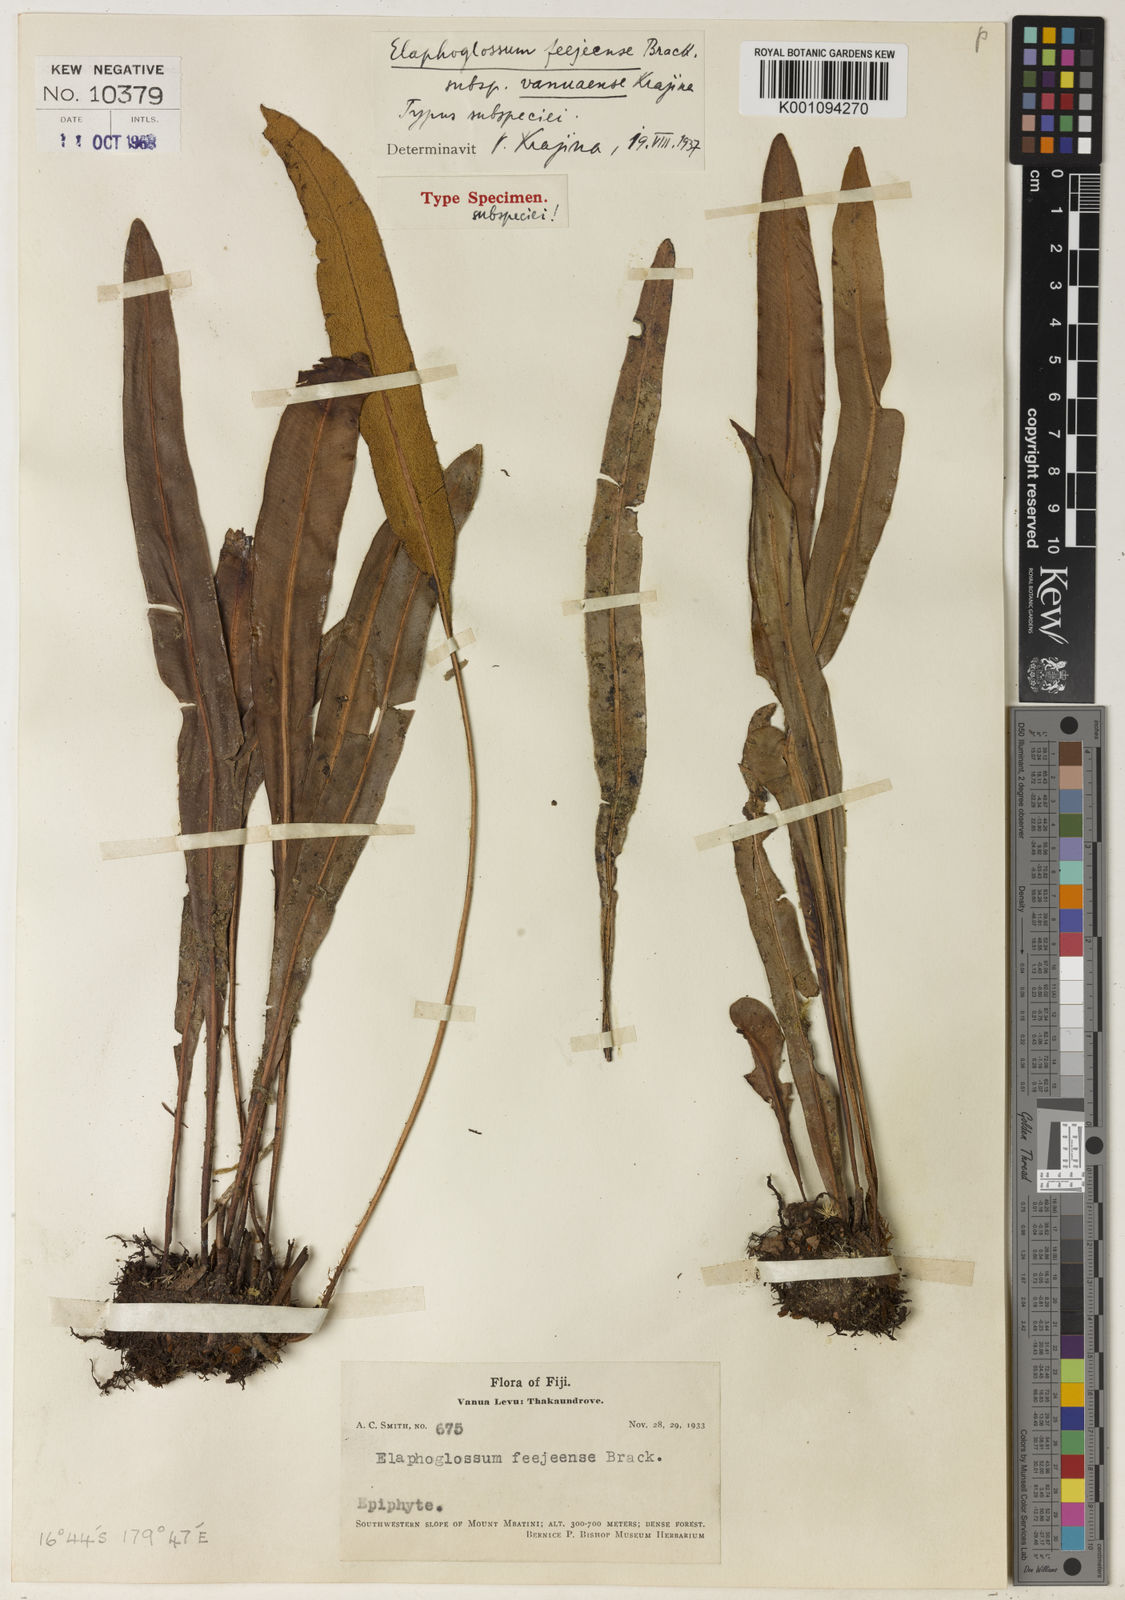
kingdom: Plantae
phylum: Tracheophyta
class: Polypodiopsida
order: Polypodiales
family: Dryopteridaceae
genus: Elaphoglossum
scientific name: Elaphoglossum feejeense
